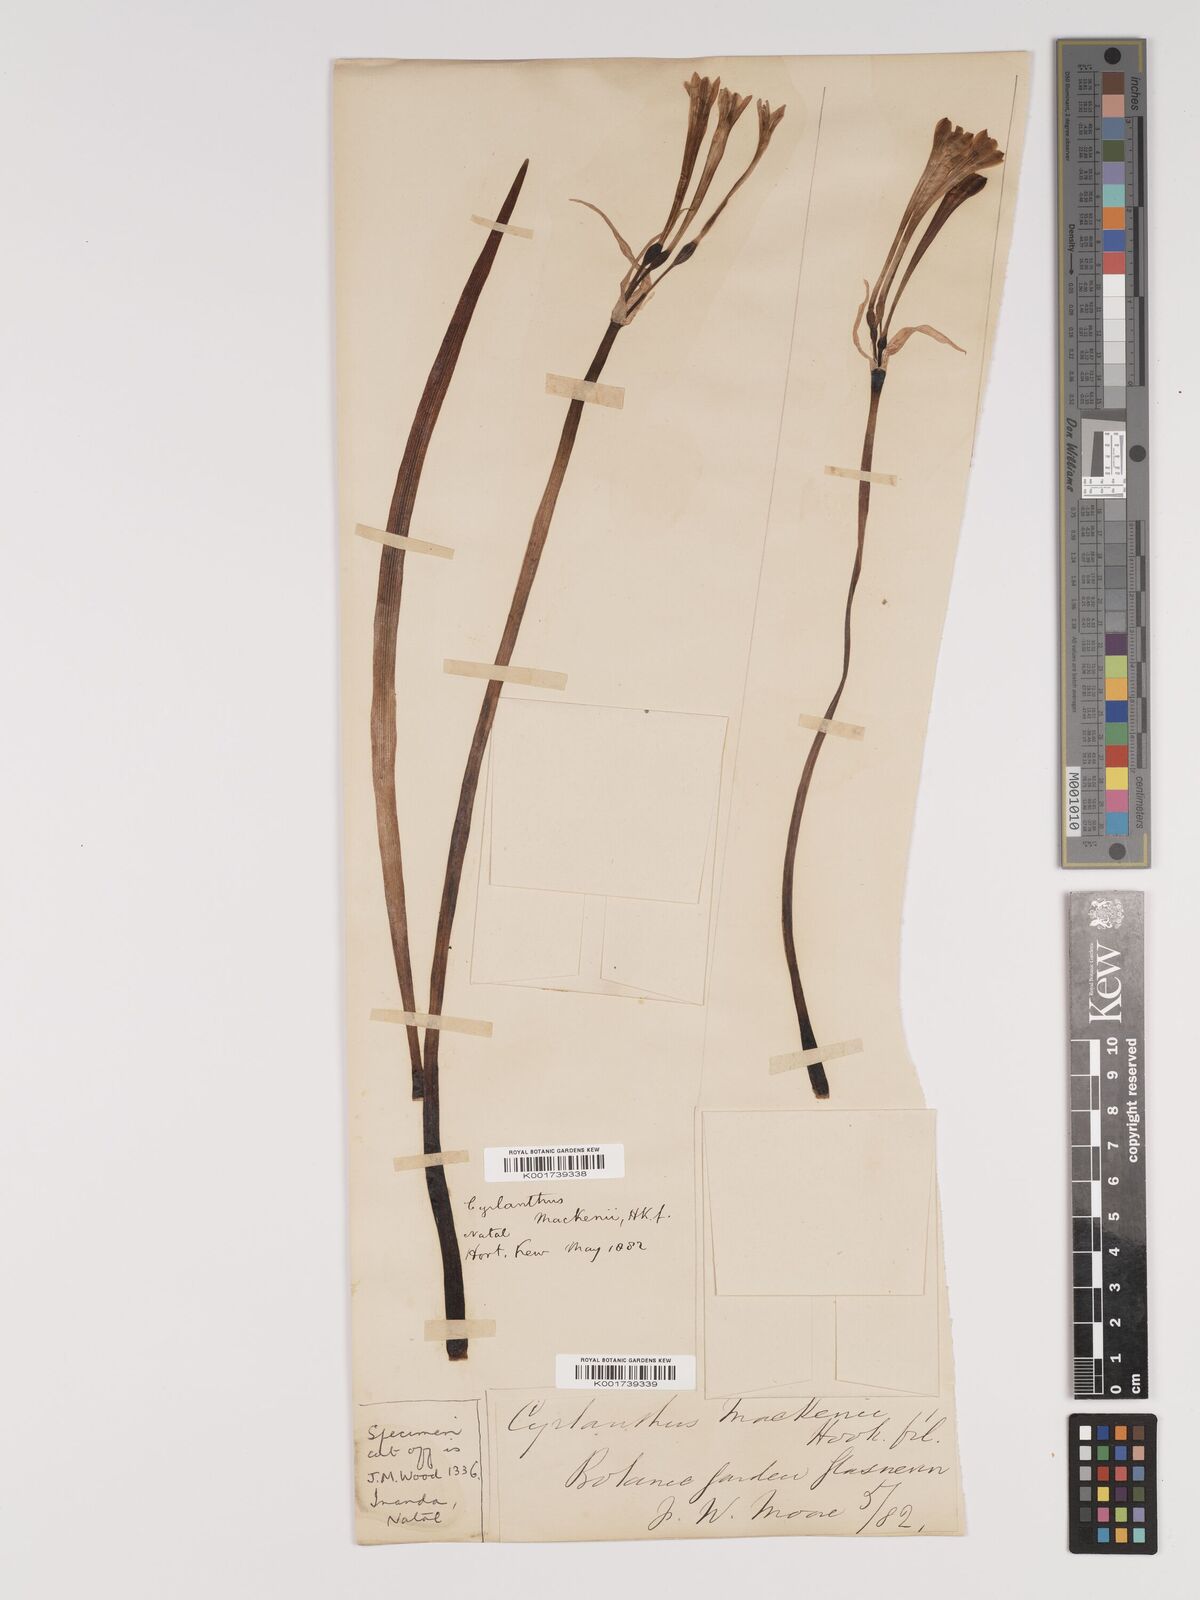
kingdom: Plantae
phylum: Tracheophyta
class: Liliopsida
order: Asparagales
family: Amaryllidaceae
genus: Cyrtanthus
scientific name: Cyrtanthus mackenii
